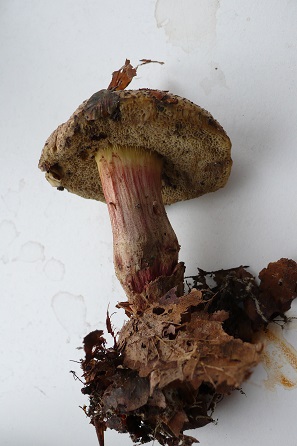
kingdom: Fungi
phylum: Basidiomycota
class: Agaricomycetes
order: Boletales
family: Boletaceae
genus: Xerocomellus
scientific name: Xerocomellus chrysenteron
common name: rødsprukken rørhat
